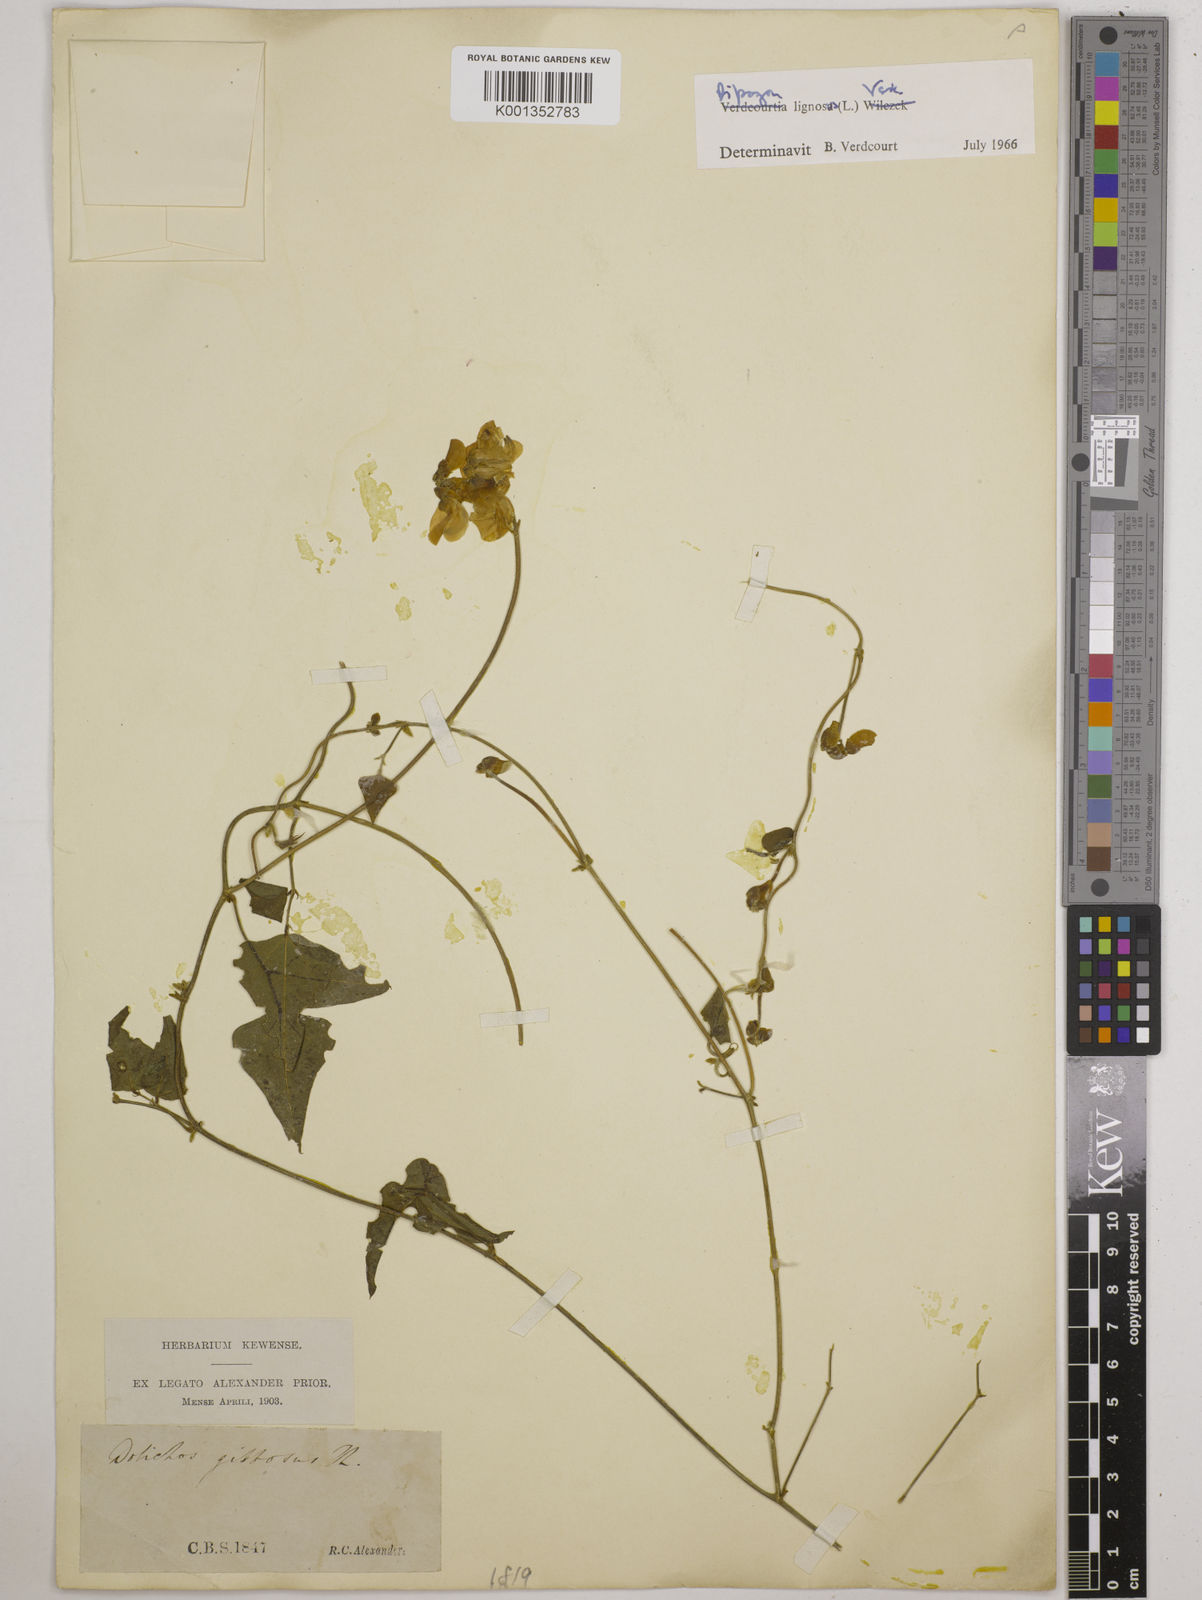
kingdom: Plantae
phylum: Tracheophyta
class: Magnoliopsida
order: Fabales
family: Fabaceae
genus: Dipogon
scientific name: Dipogon lignosus
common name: Okie bean
